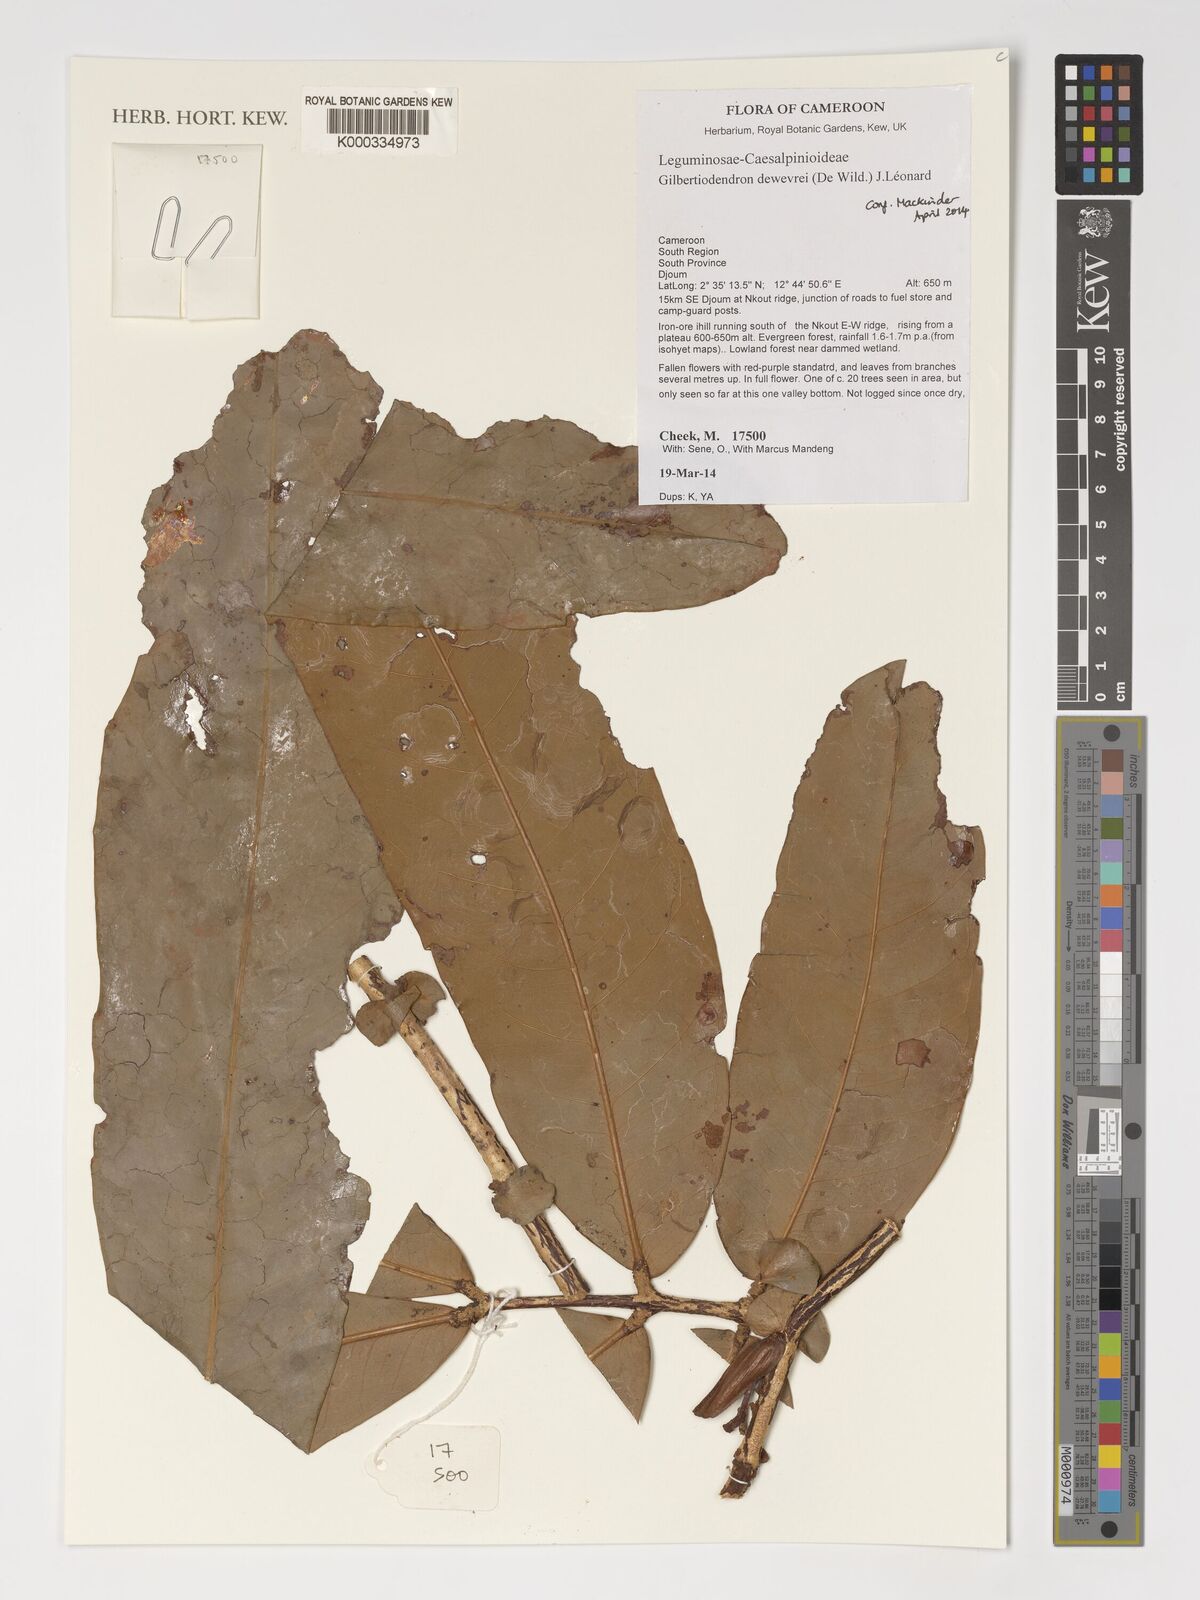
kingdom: Plantae
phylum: Tracheophyta
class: Magnoliopsida
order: Fabales
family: Fabaceae
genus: Gilbertiodendron
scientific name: Gilbertiodendron dewevrei
